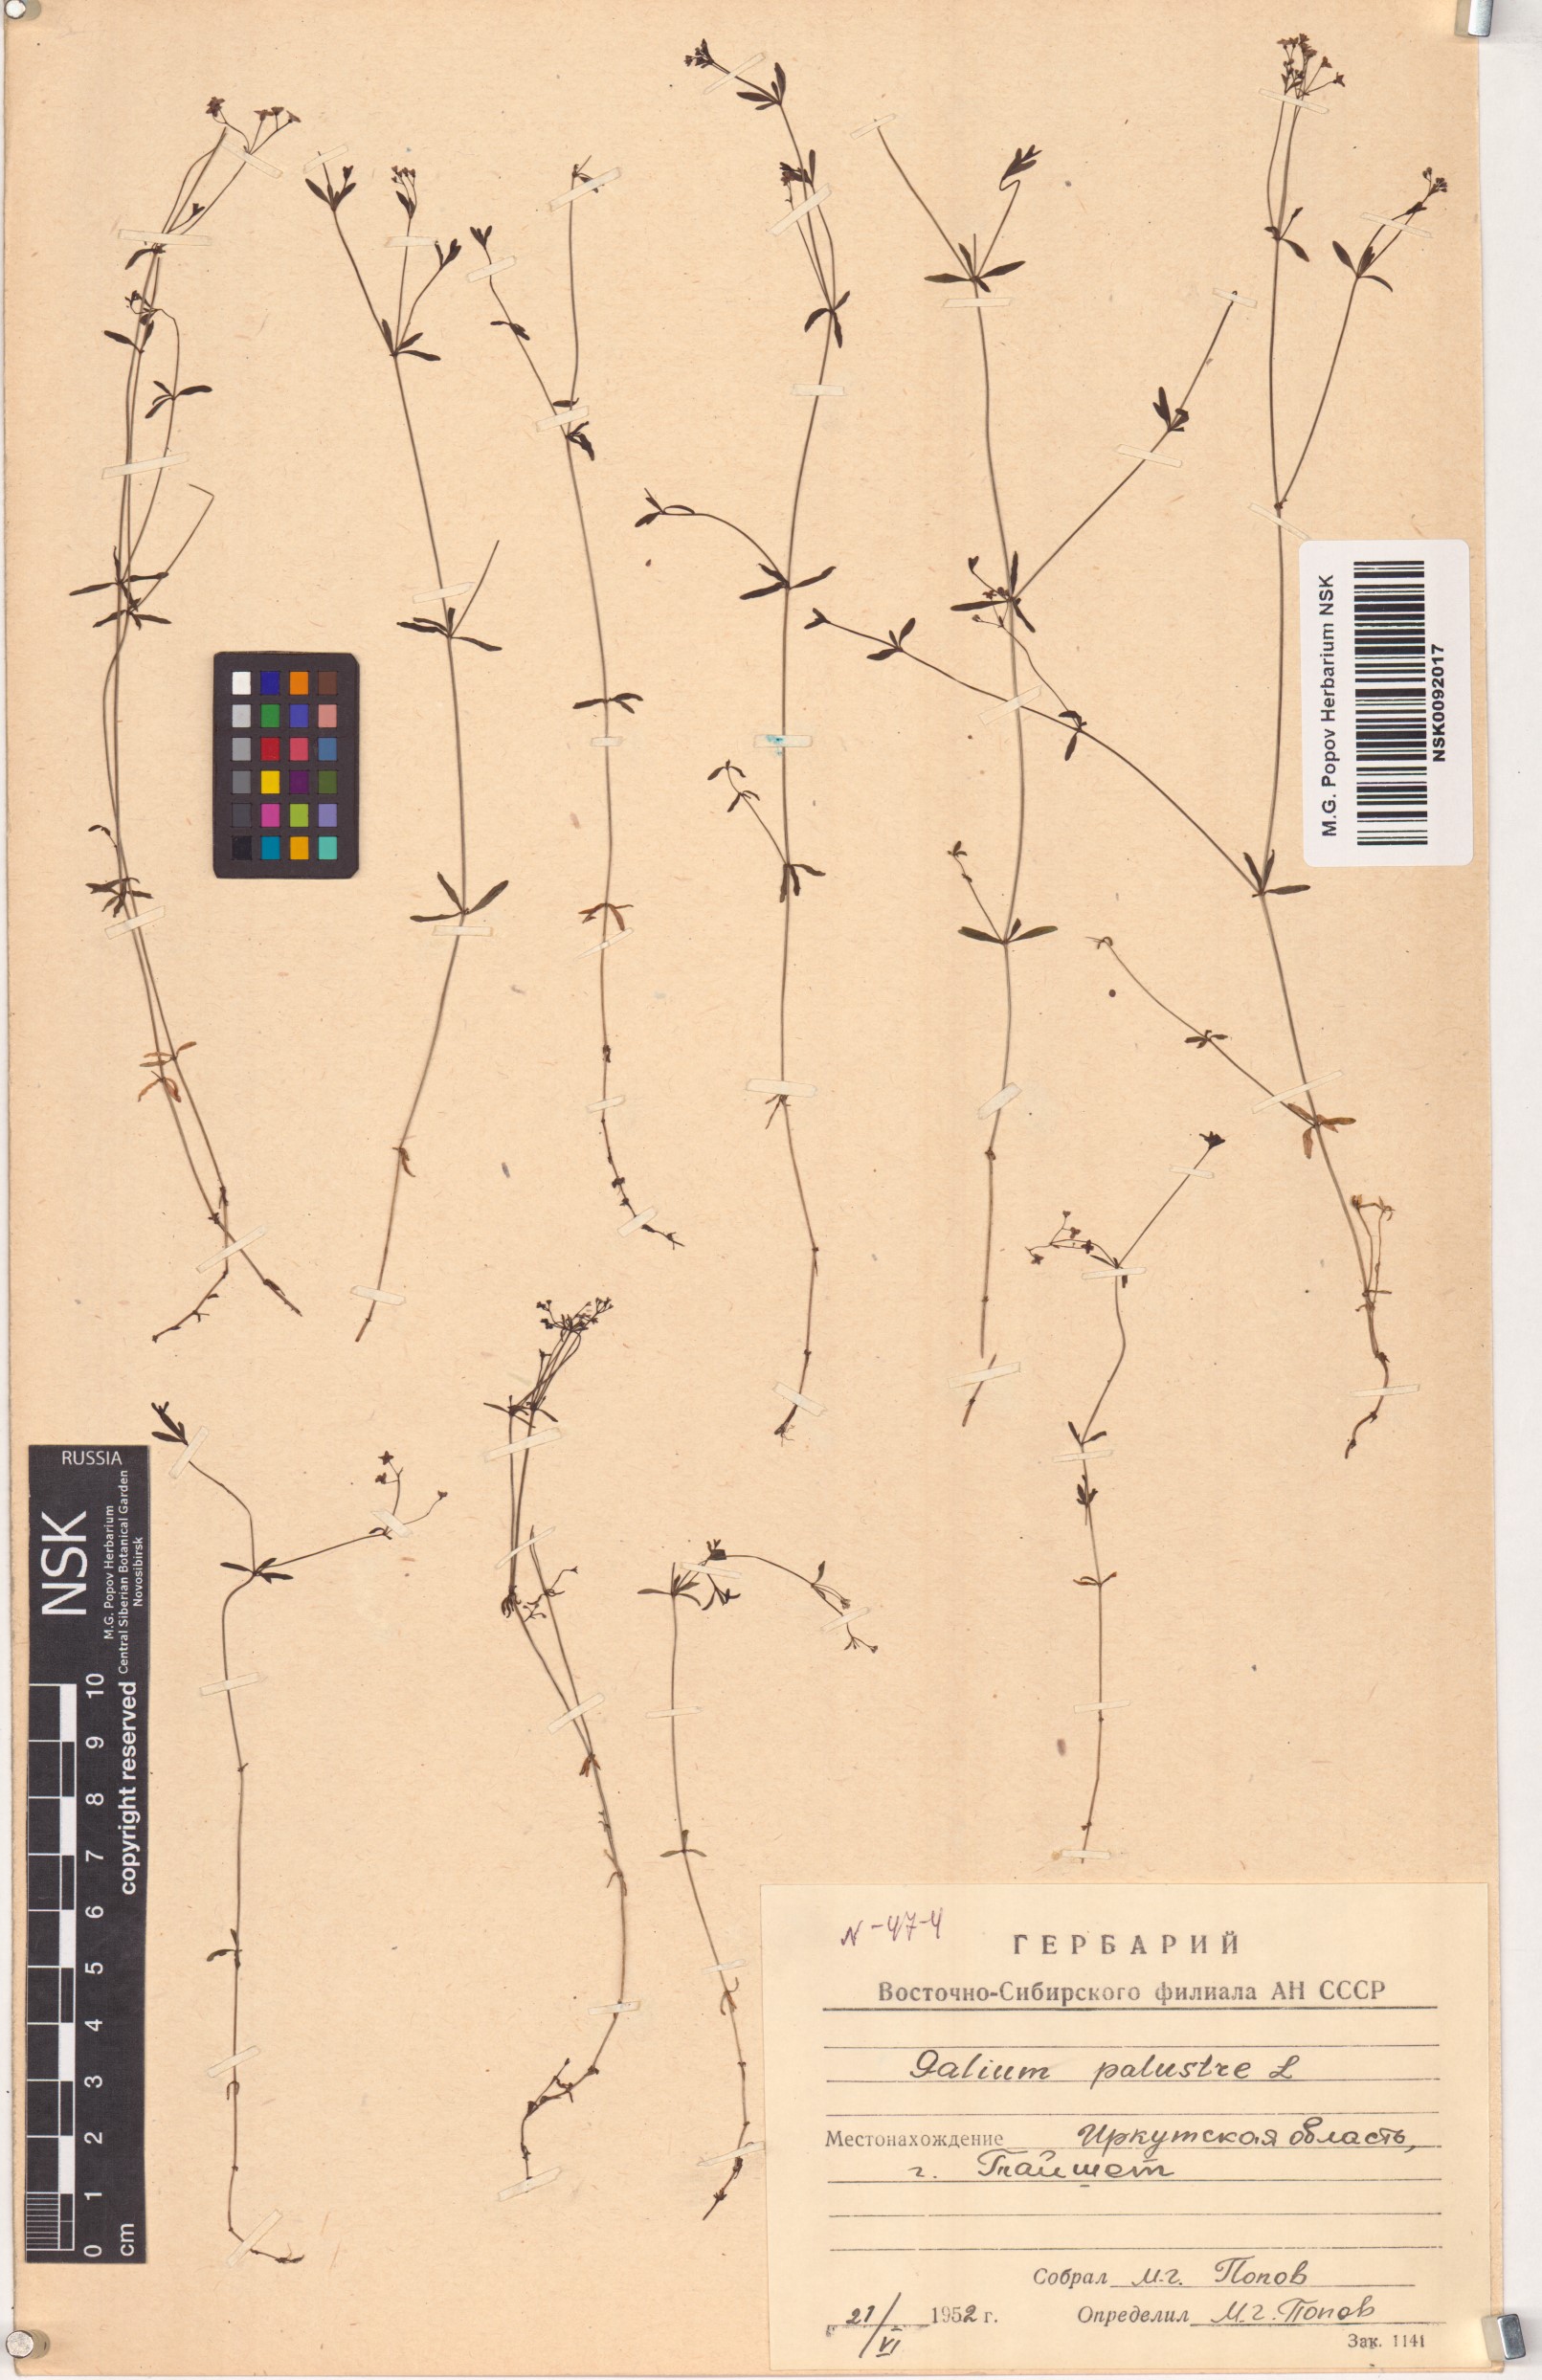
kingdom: Plantae
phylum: Tracheophyta
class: Magnoliopsida
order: Gentianales
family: Rubiaceae
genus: Galium
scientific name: Galium palustre
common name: Common marsh-bedstraw
